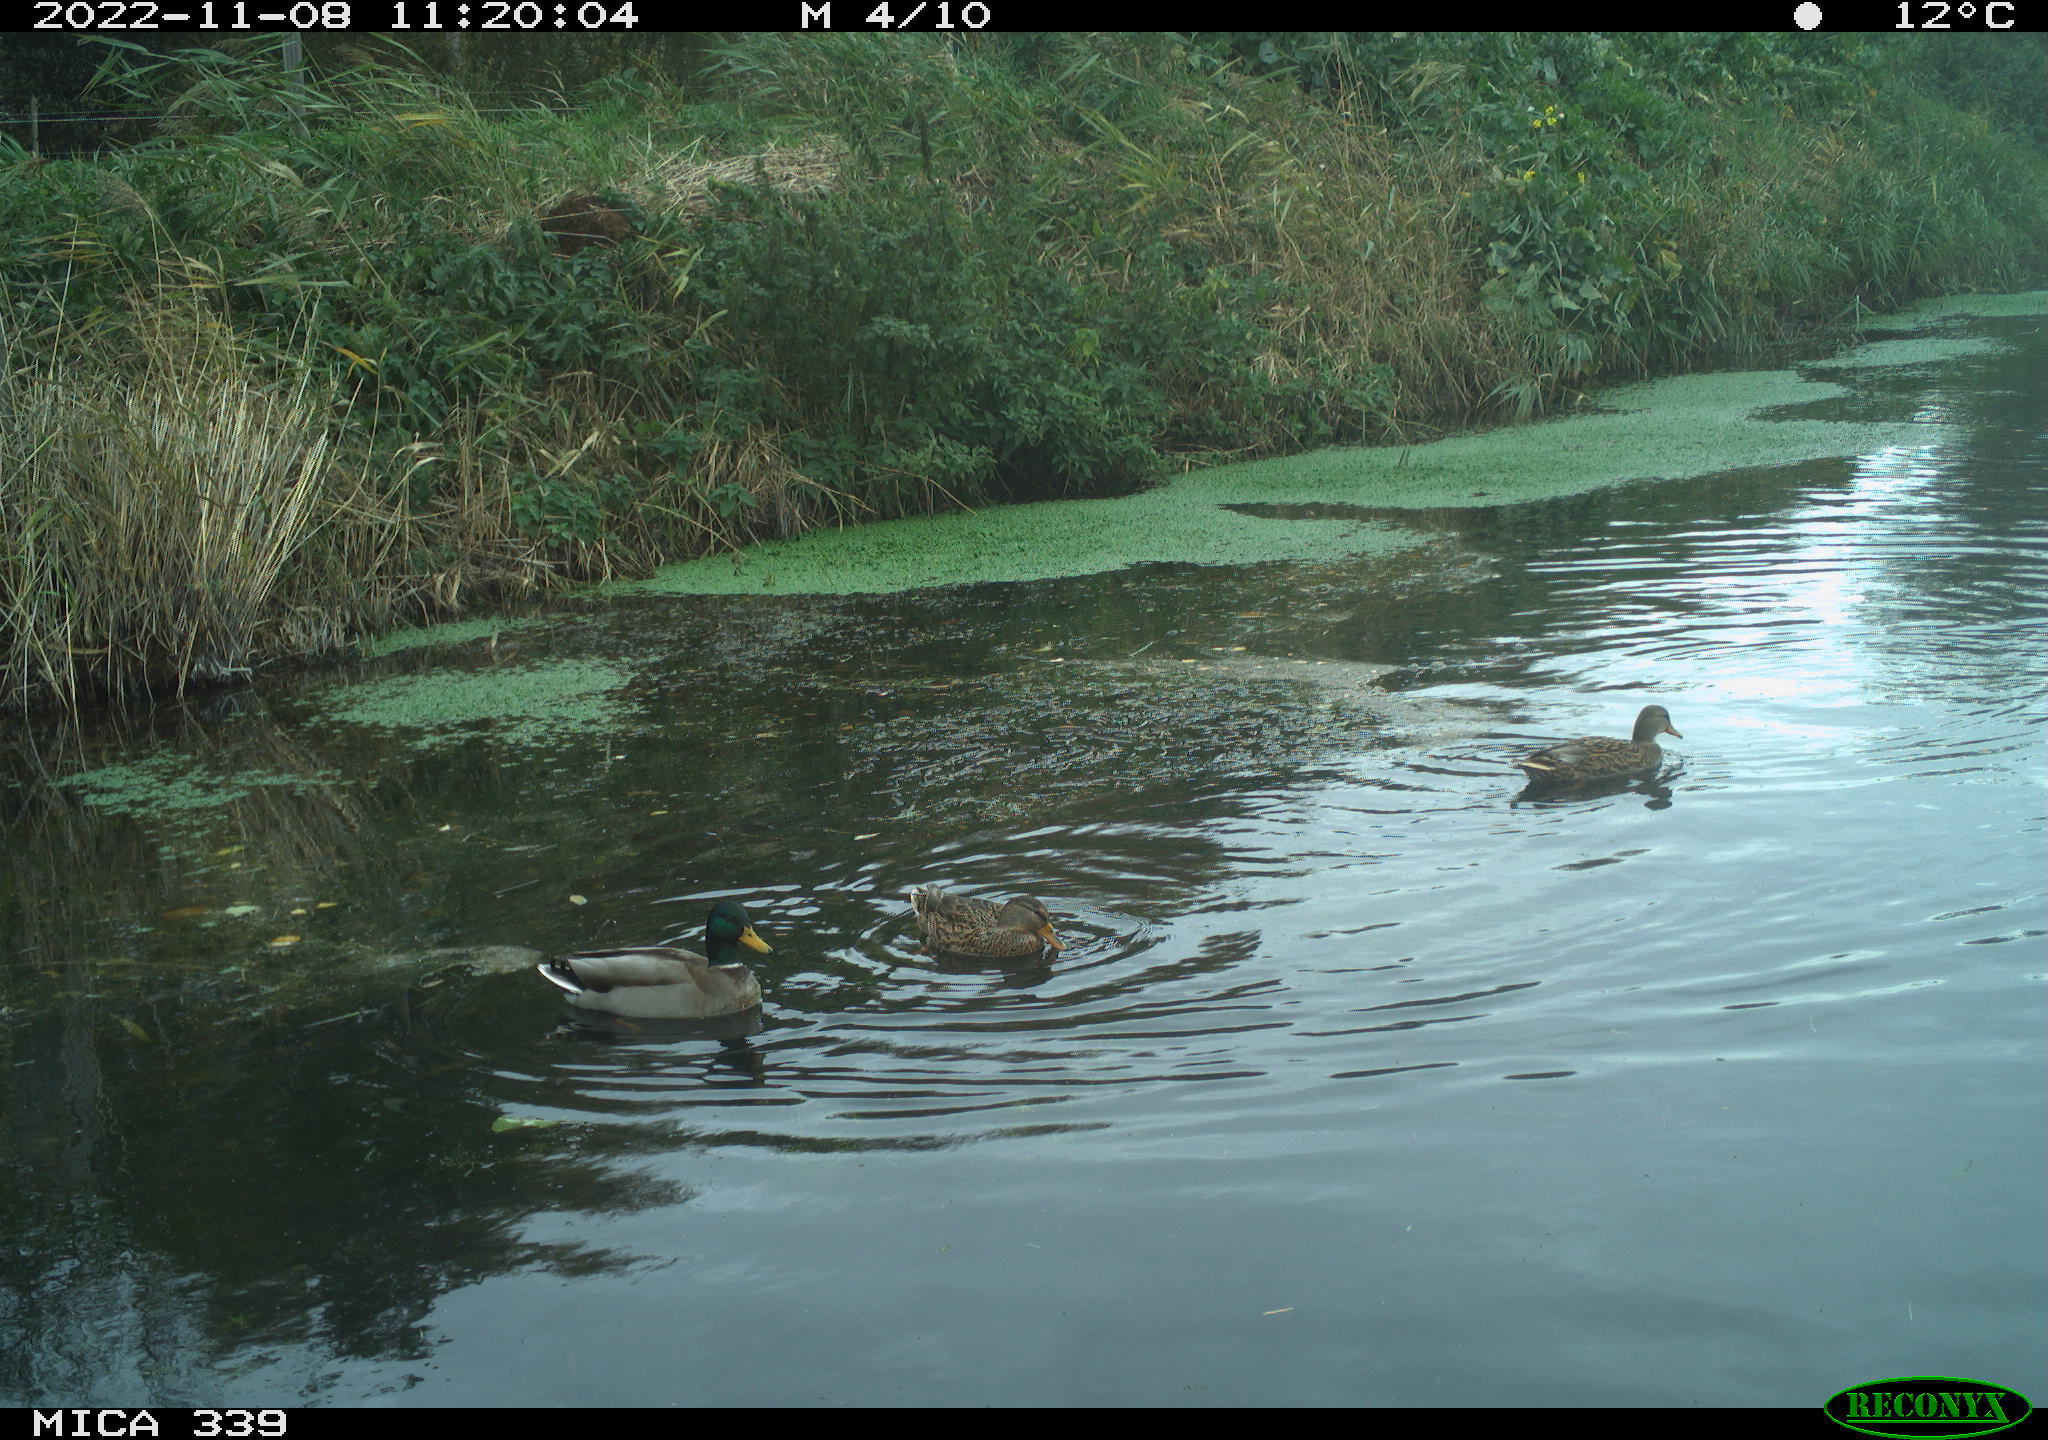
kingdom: Animalia
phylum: Chordata
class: Aves
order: Anseriformes
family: Anatidae
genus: Anas
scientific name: Anas platyrhynchos
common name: Mallard
